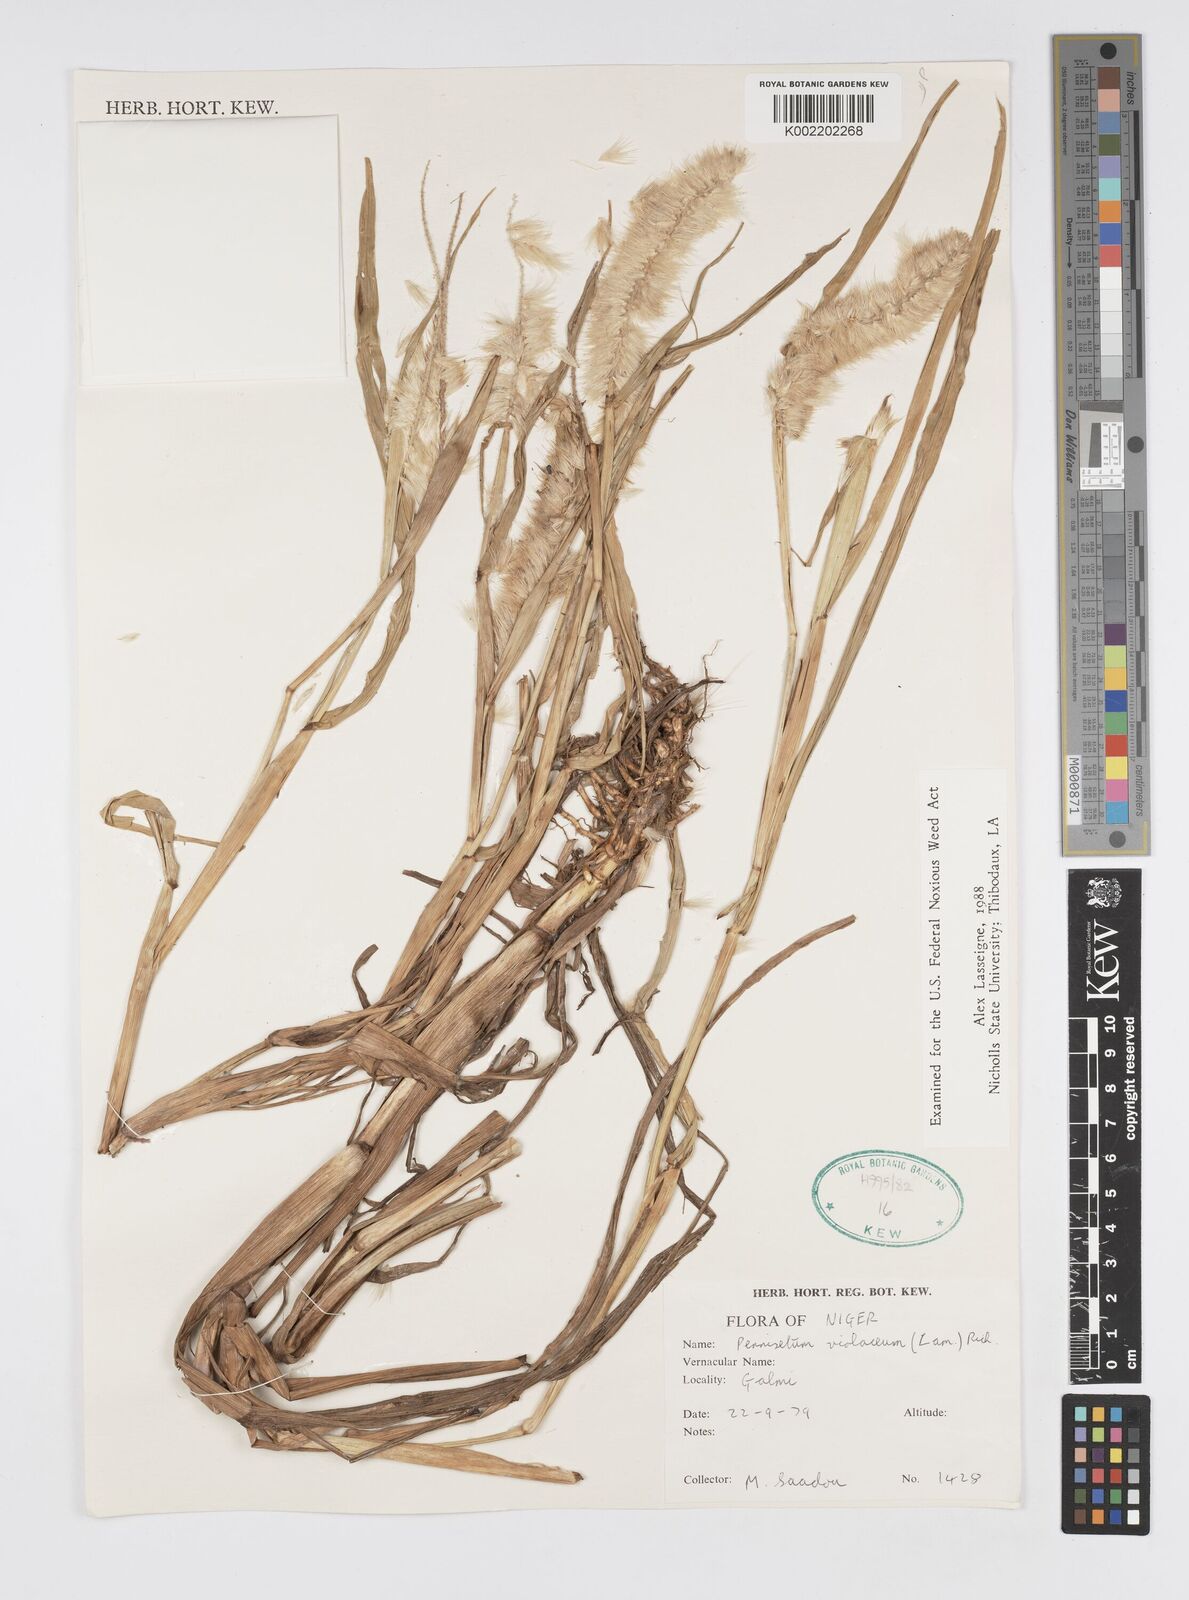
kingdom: Plantae
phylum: Tracheophyta
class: Liliopsida
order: Poales
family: Poaceae
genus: Cenchrus
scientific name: Cenchrus violaceus
